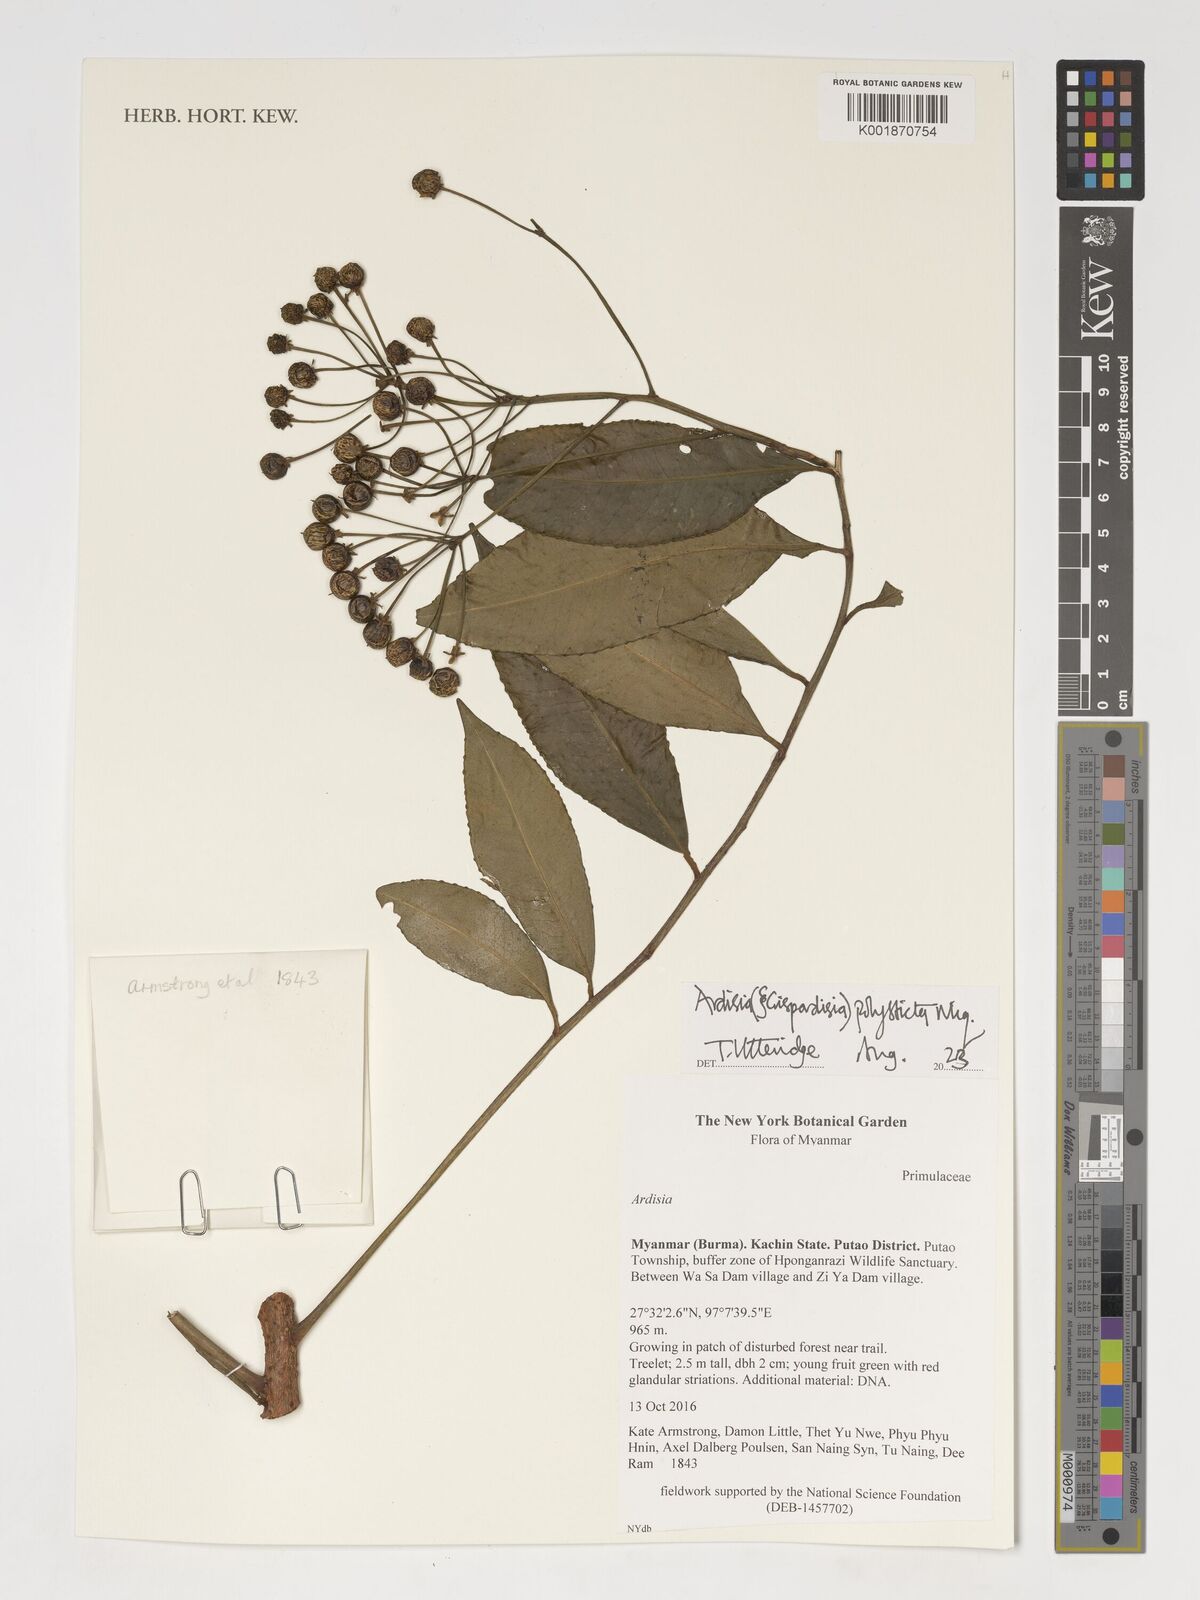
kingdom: Plantae
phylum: Tracheophyta
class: Magnoliopsida
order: Ericales
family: Primulaceae
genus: Ardisia
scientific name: Ardisia polysticta
